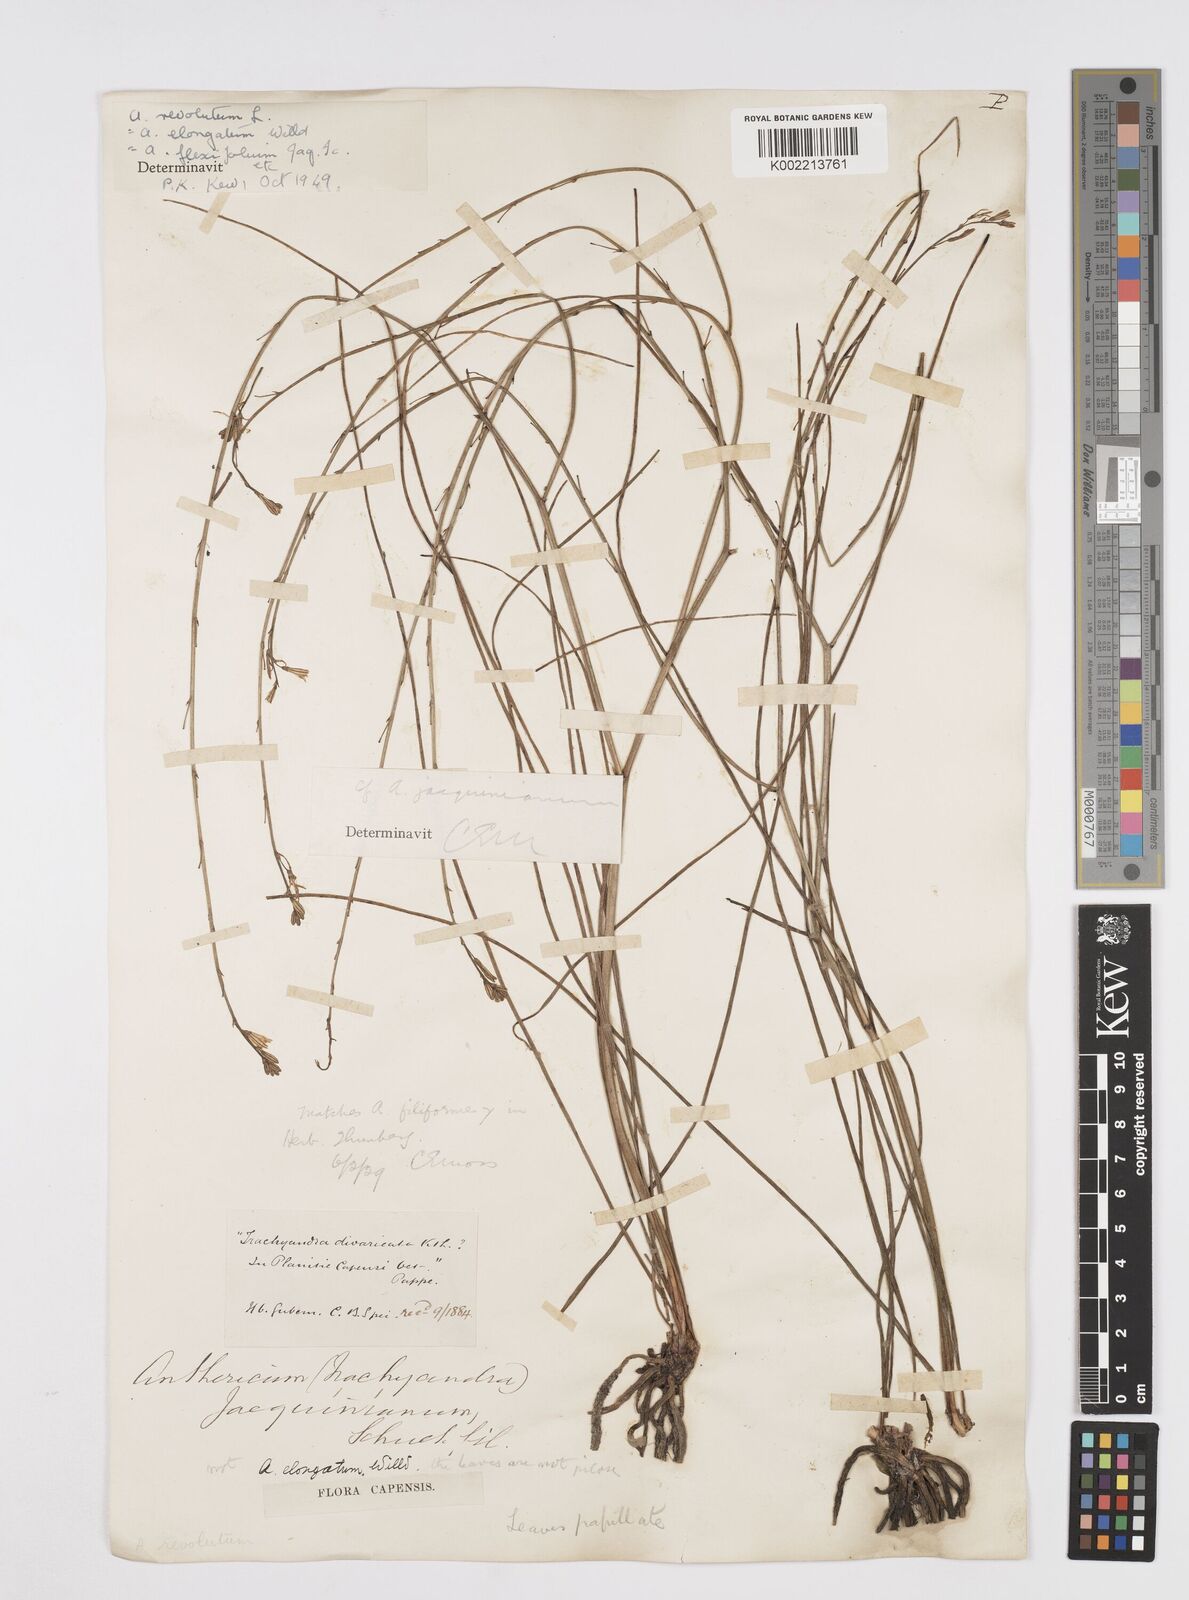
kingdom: Plantae
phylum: Tracheophyta
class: Liliopsida
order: Asparagales
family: Asphodelaceae
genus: Trachyandra
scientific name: Trachyandra revoluta
